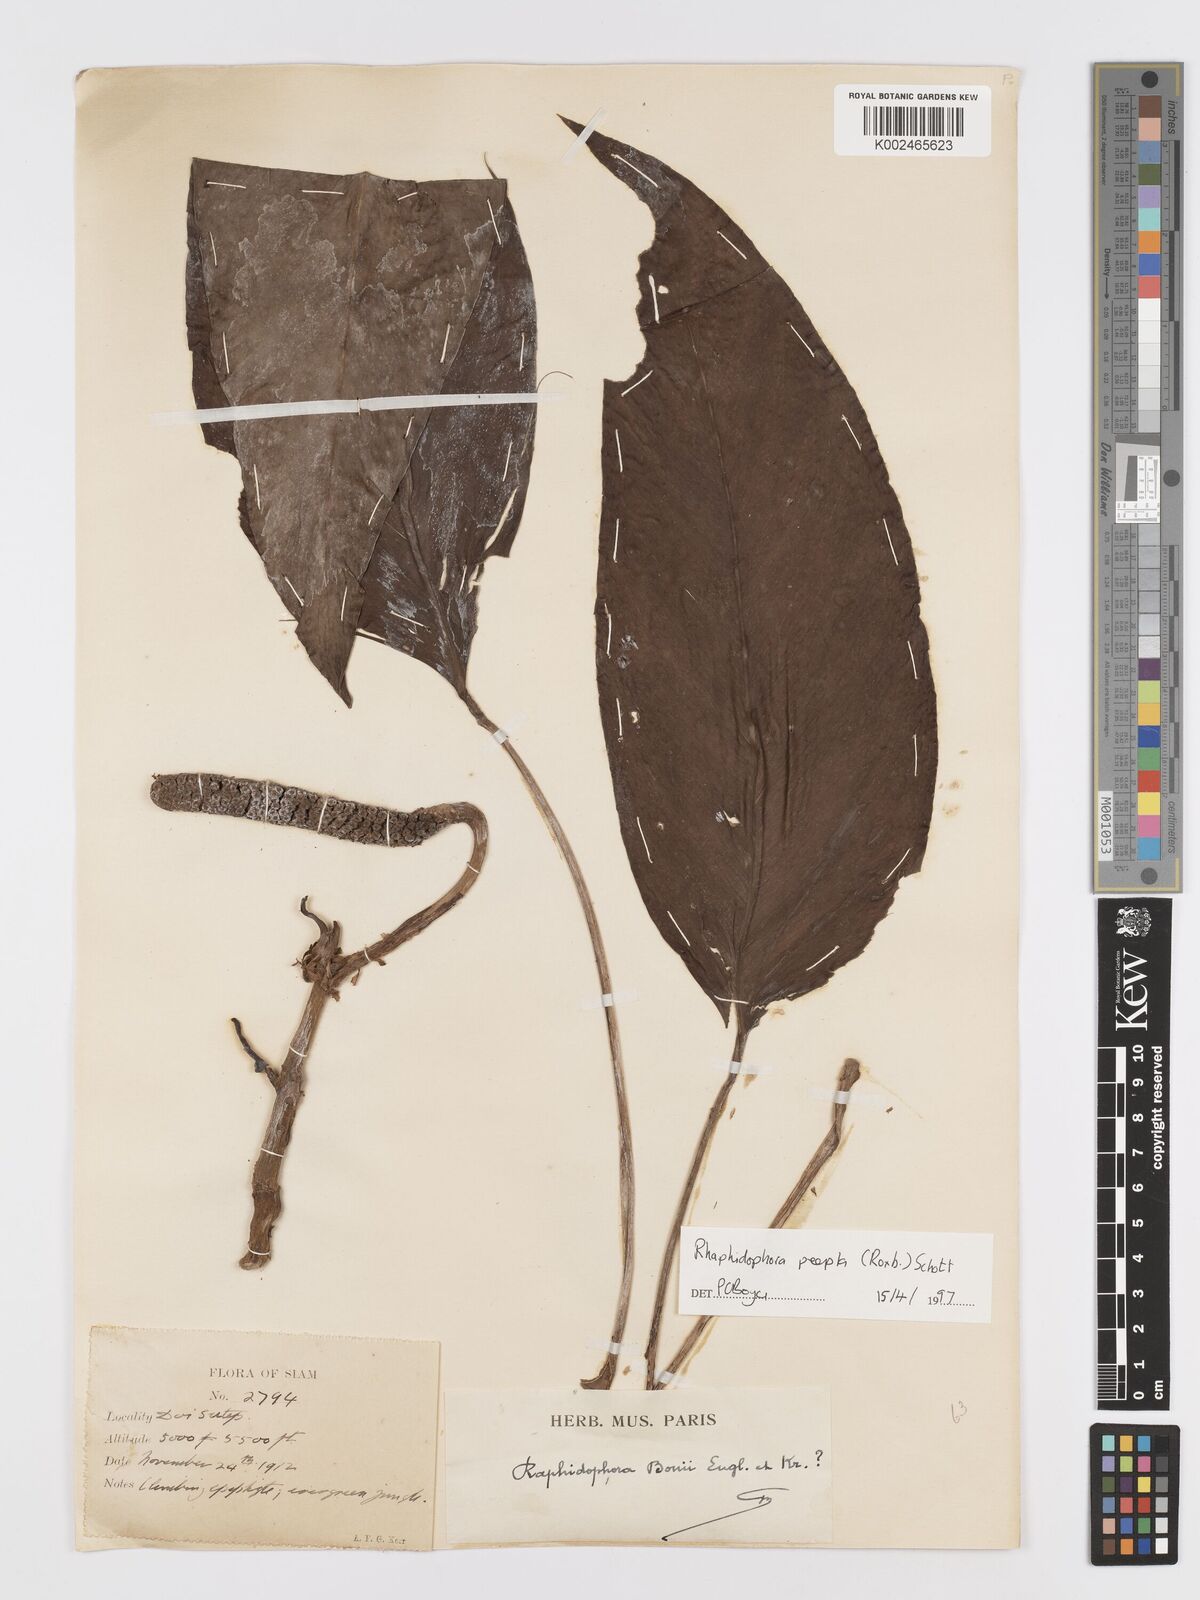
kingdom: Plantae
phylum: Tracheophyta
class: Liliopsida
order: Alismatales
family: Araceae
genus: Rhaphidophora
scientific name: Rhaphidophora peepla
